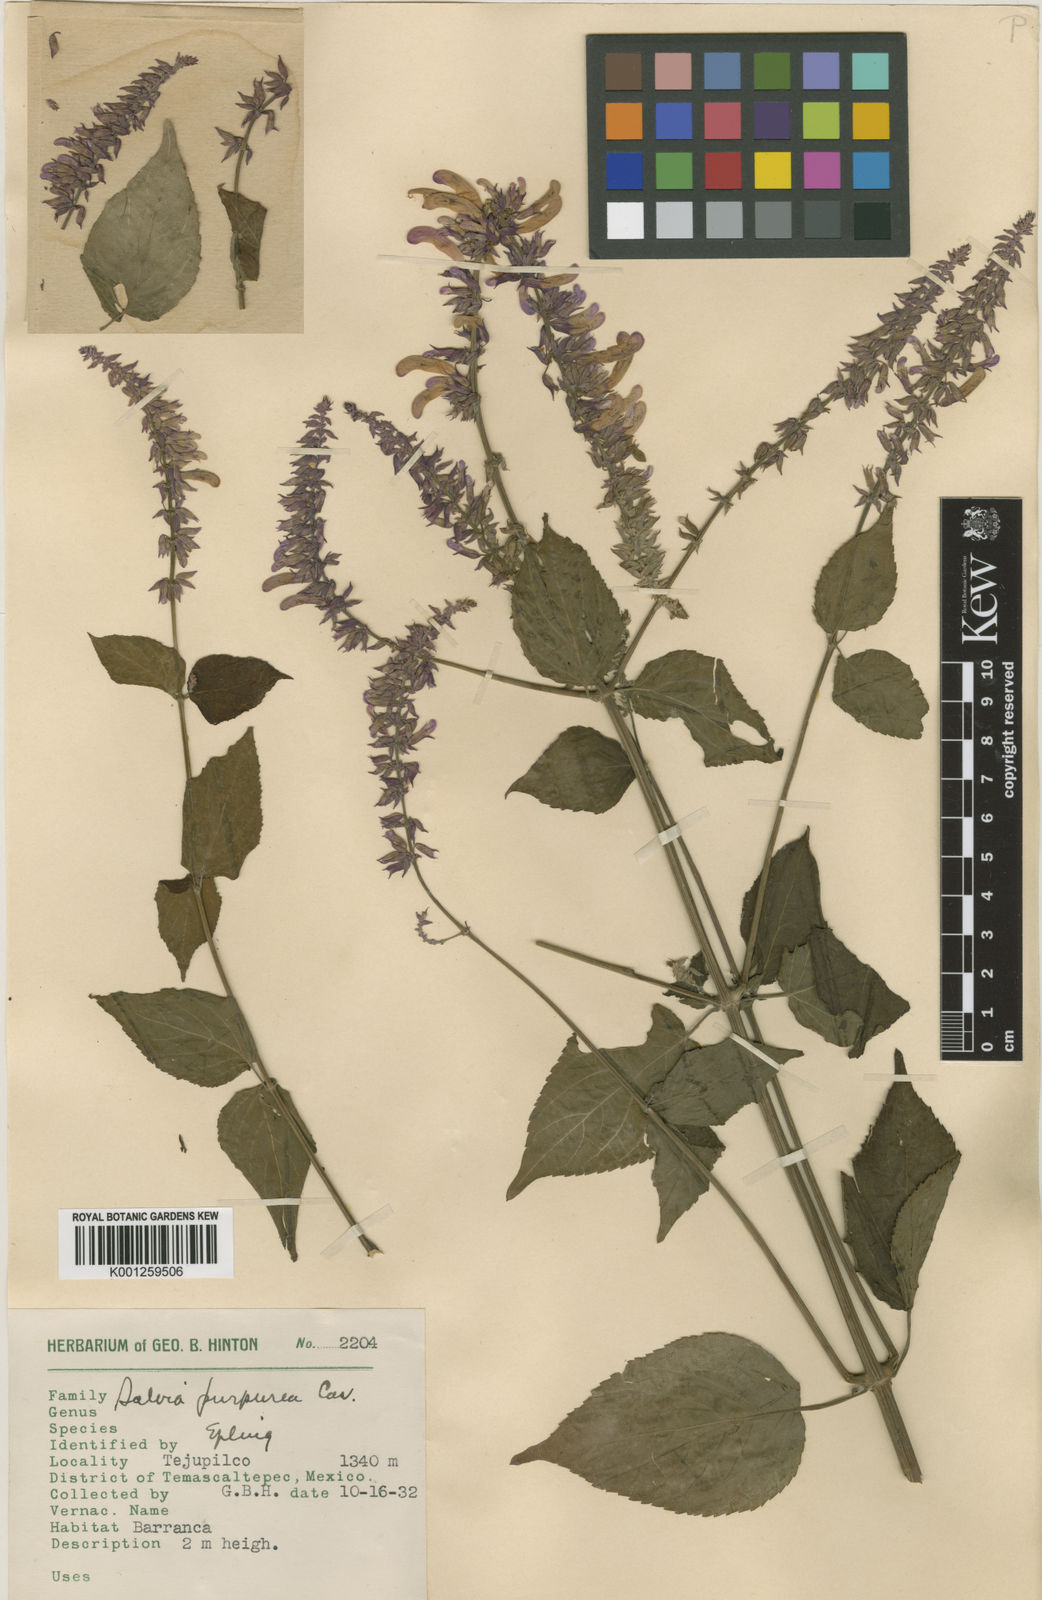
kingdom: Plantae
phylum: Tracheophyta
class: Magnoliopsida
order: Lamiales
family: Lamiaceae
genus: Salvia
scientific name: Salvia purpurea
